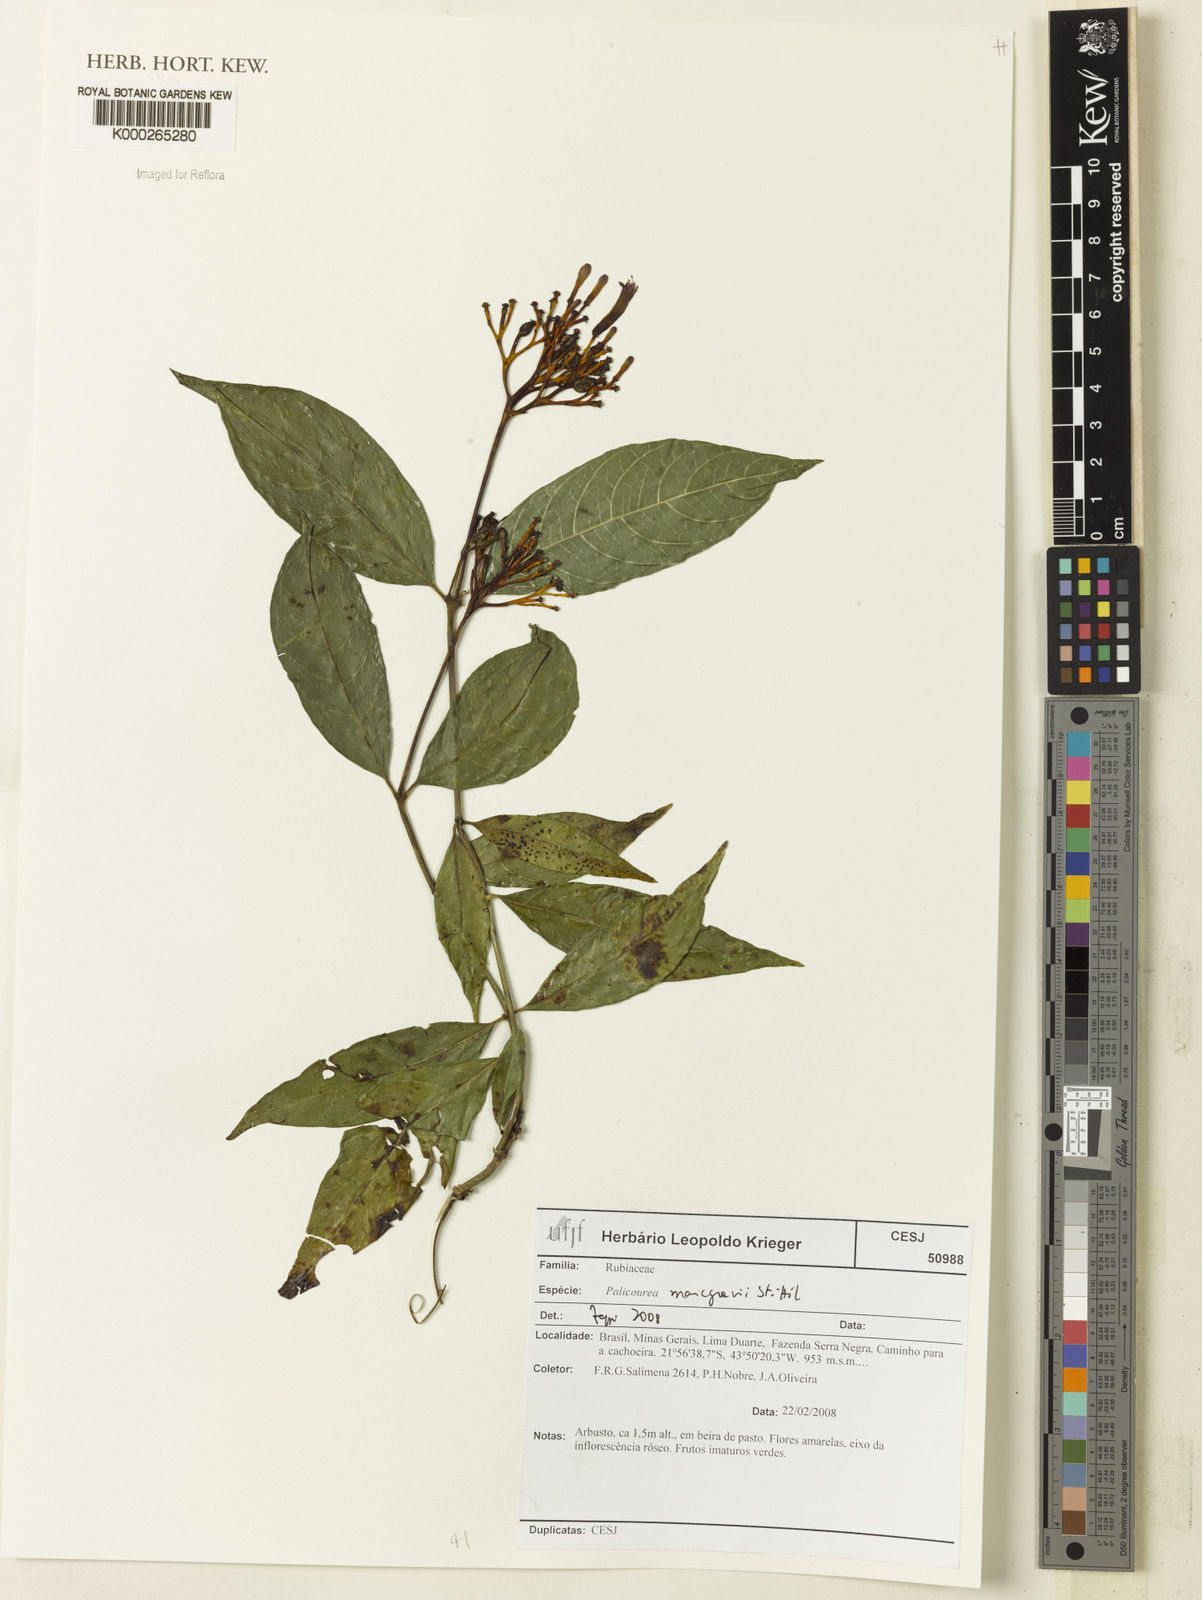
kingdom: Plantae
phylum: Tracheophyta
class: Magnoliopsida
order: Gentianales
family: Rubiaceae
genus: Palicourea
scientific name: Palicourea marcgravii
